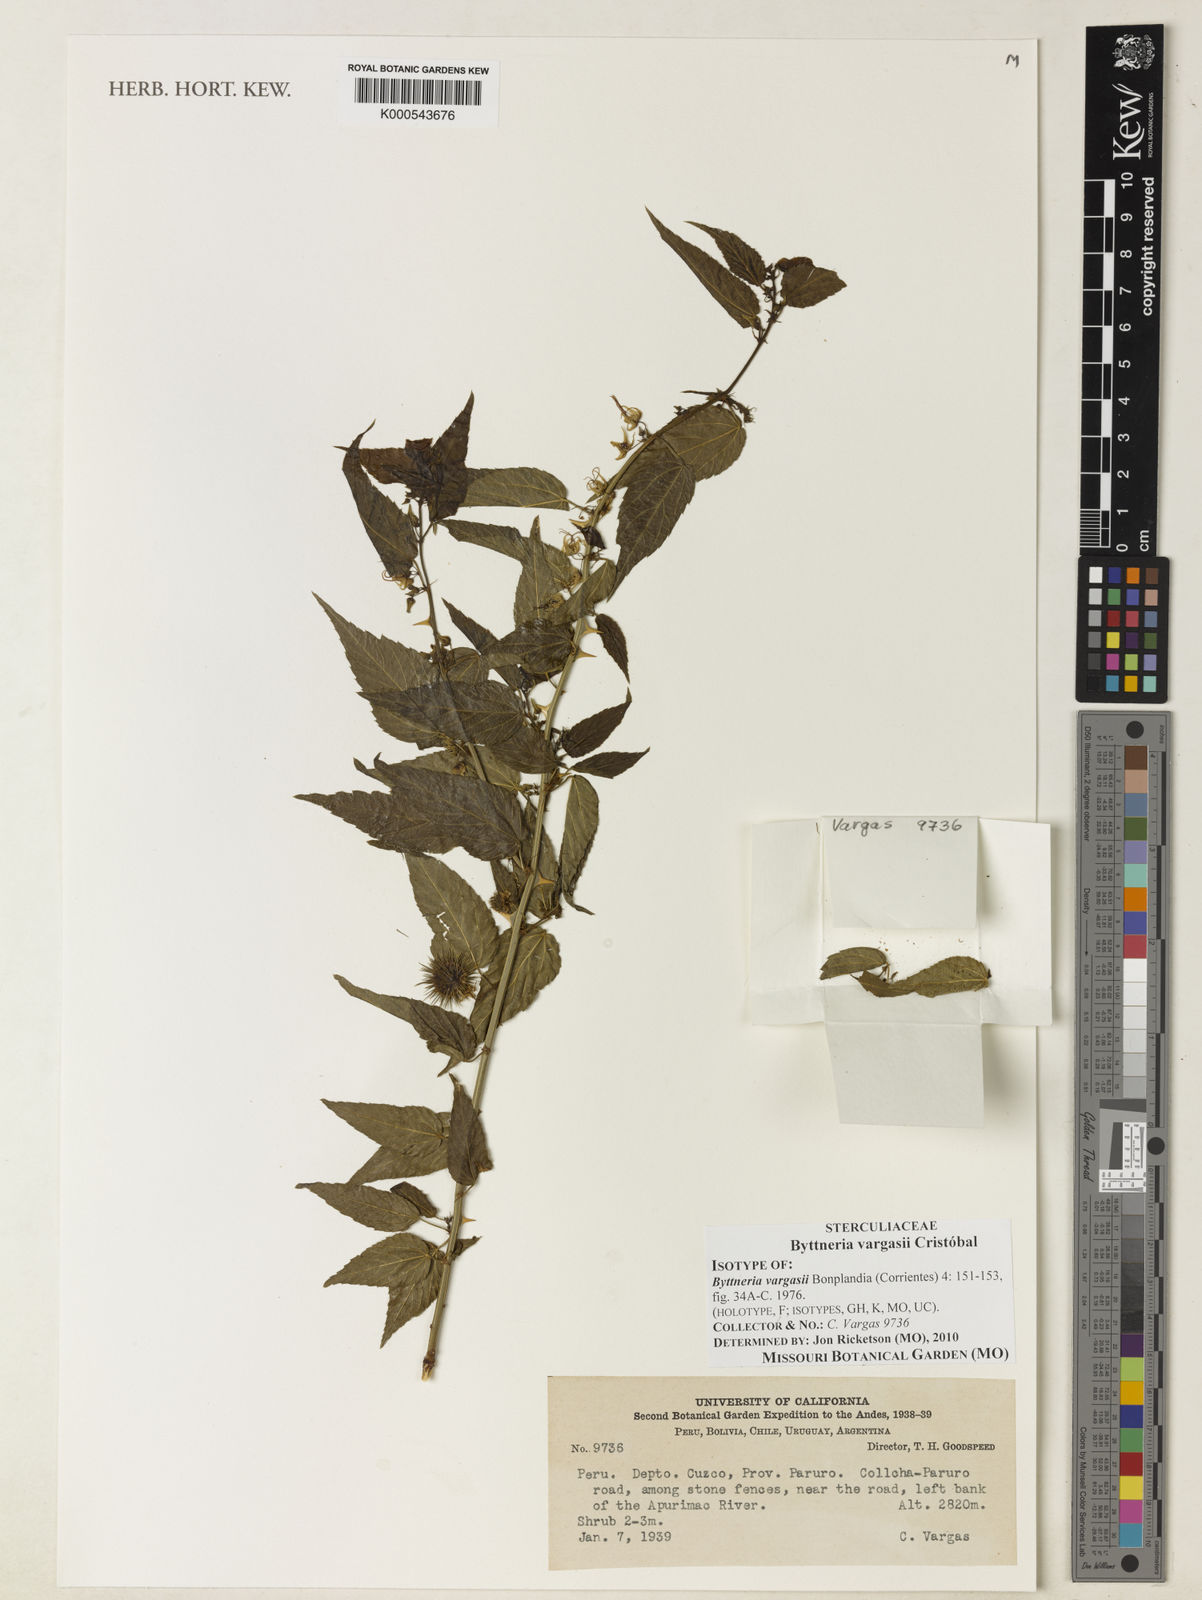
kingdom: Plantae
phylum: Tracheophyta
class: Magnoliopsida
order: Malvales
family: Malvaceae
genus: Byttneria
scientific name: Byttneria
